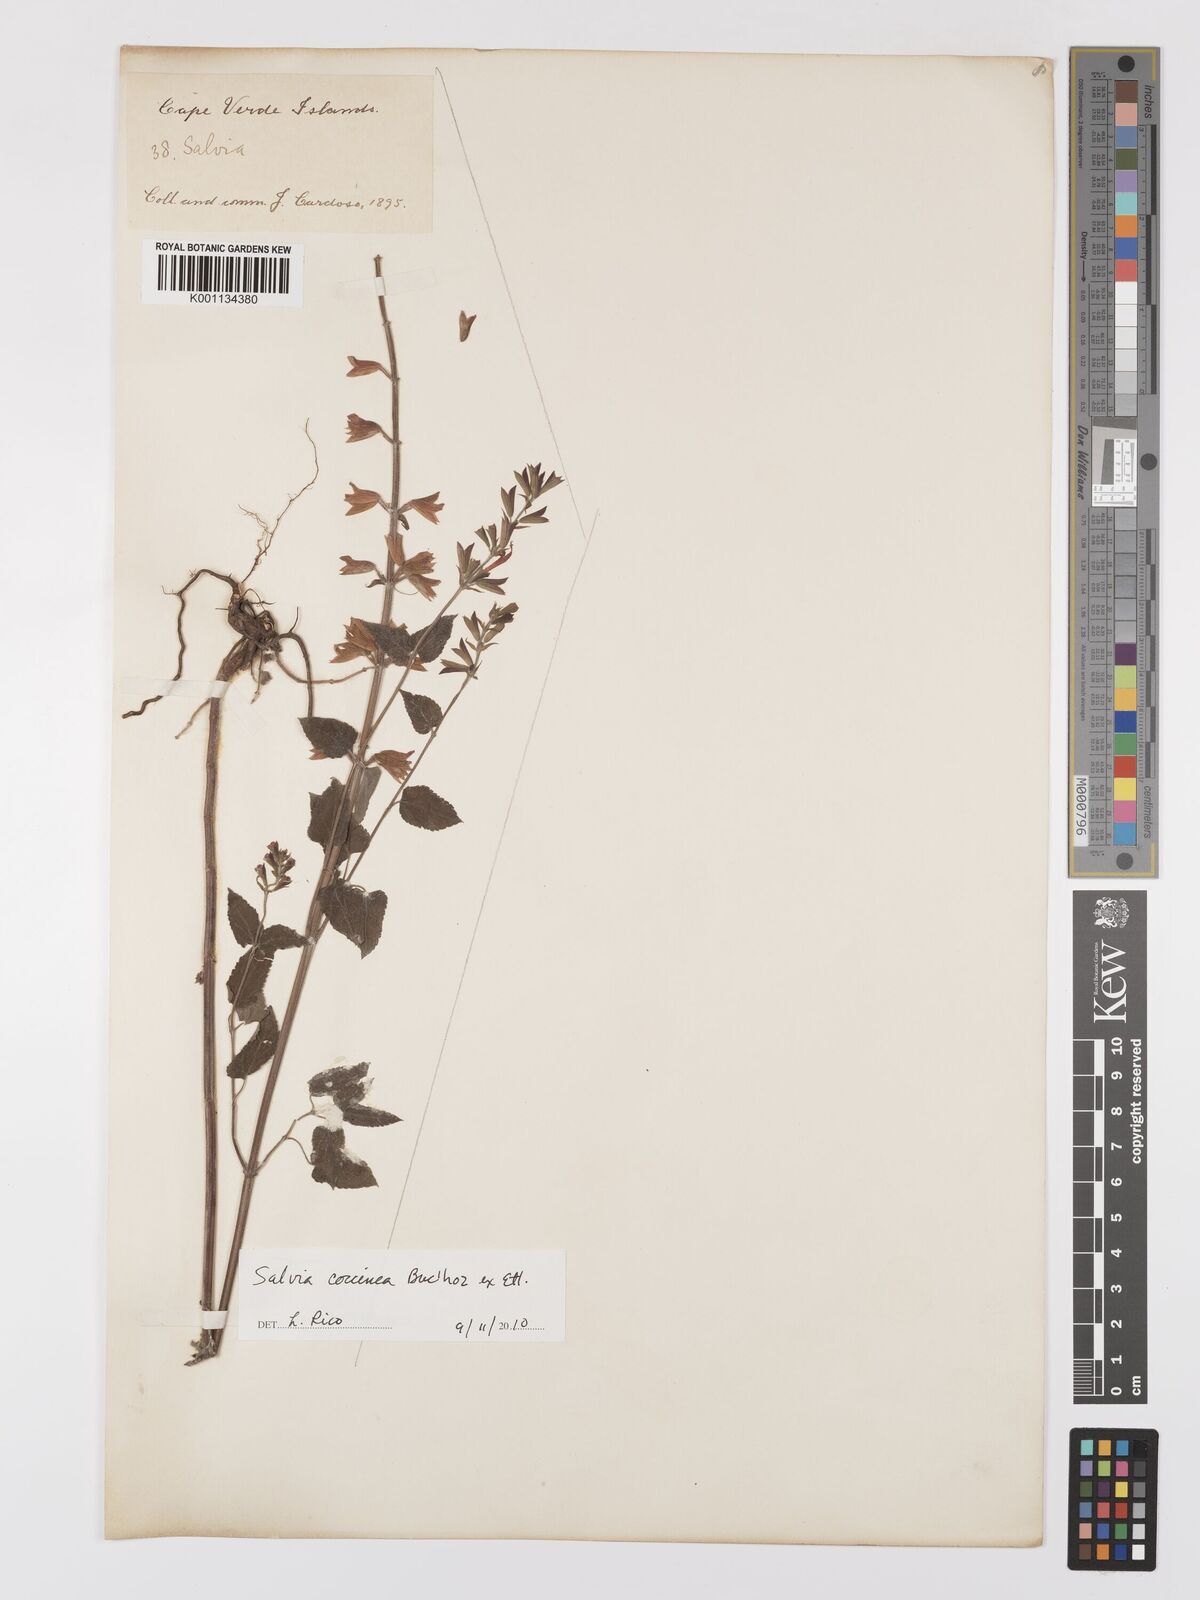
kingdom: Plantae
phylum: Tracheophyta
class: Magnoliopsida
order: Lamiales
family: Lamiaceae
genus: Salvia
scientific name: Salvia coccinea
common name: Blood sage
